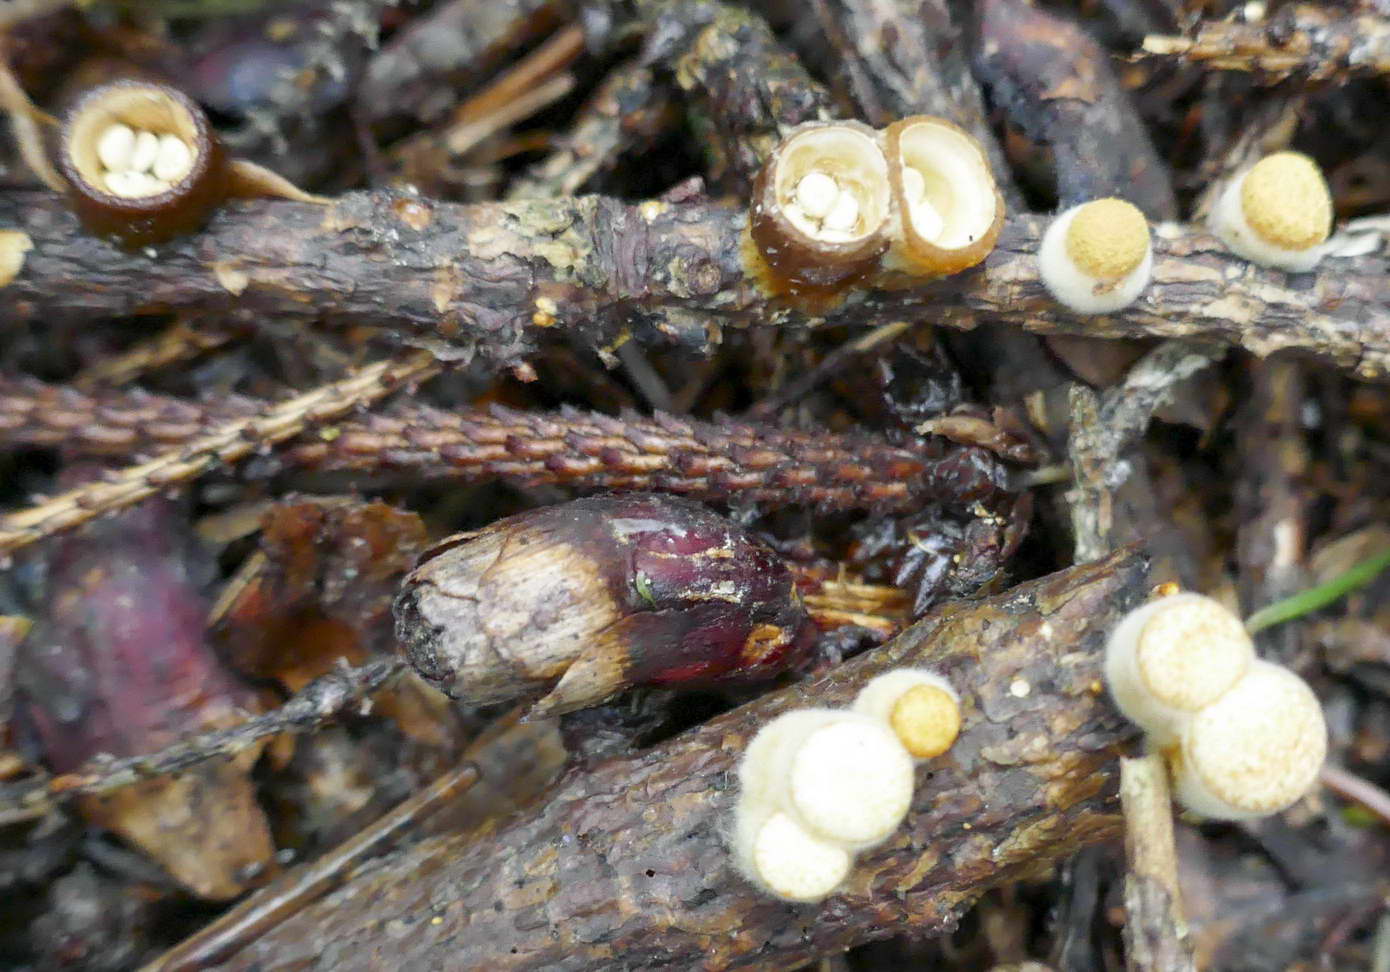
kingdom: Fungi
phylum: Basidiomycota
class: Agaricomycetes
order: Agaricales
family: Nidulariaceae
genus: Crucibulum
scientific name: Crucibulum crucibuliforme
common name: krukkesvamp
